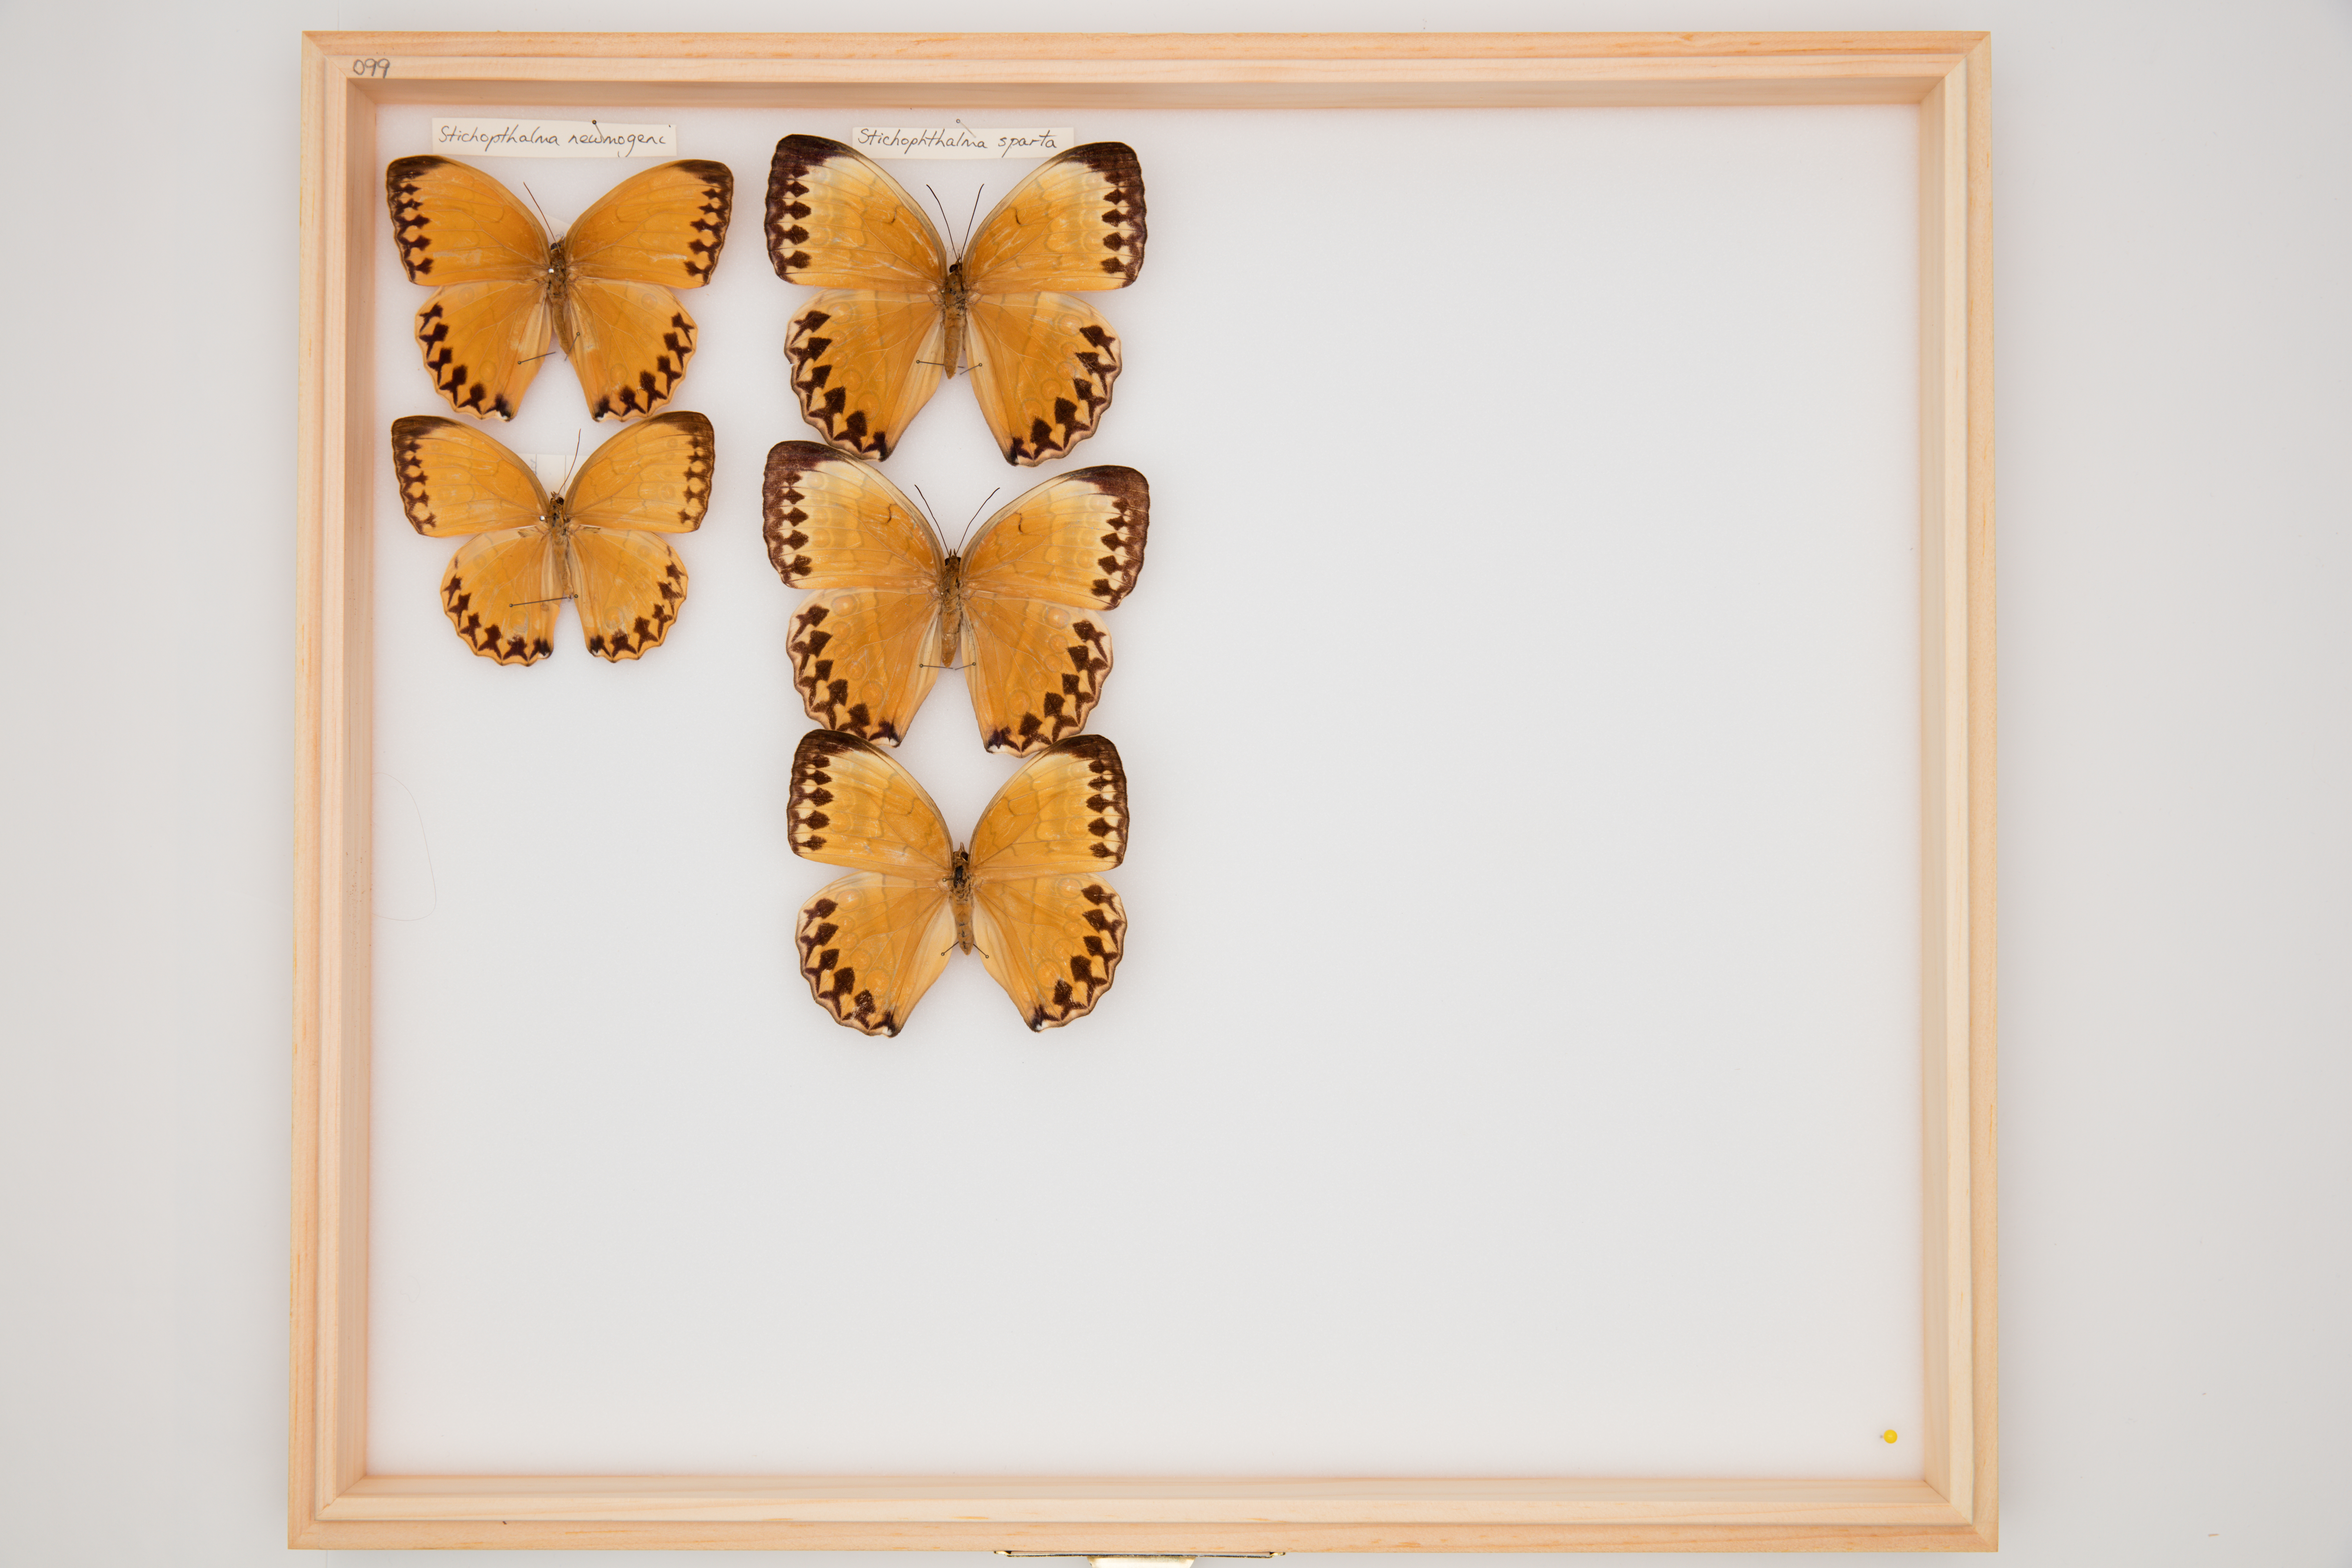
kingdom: Animalia
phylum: Arthropoda
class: Insecta
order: Lepidoptera
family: Nymphalidae
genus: Stichophthalma
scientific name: Stichophthalma sparta
